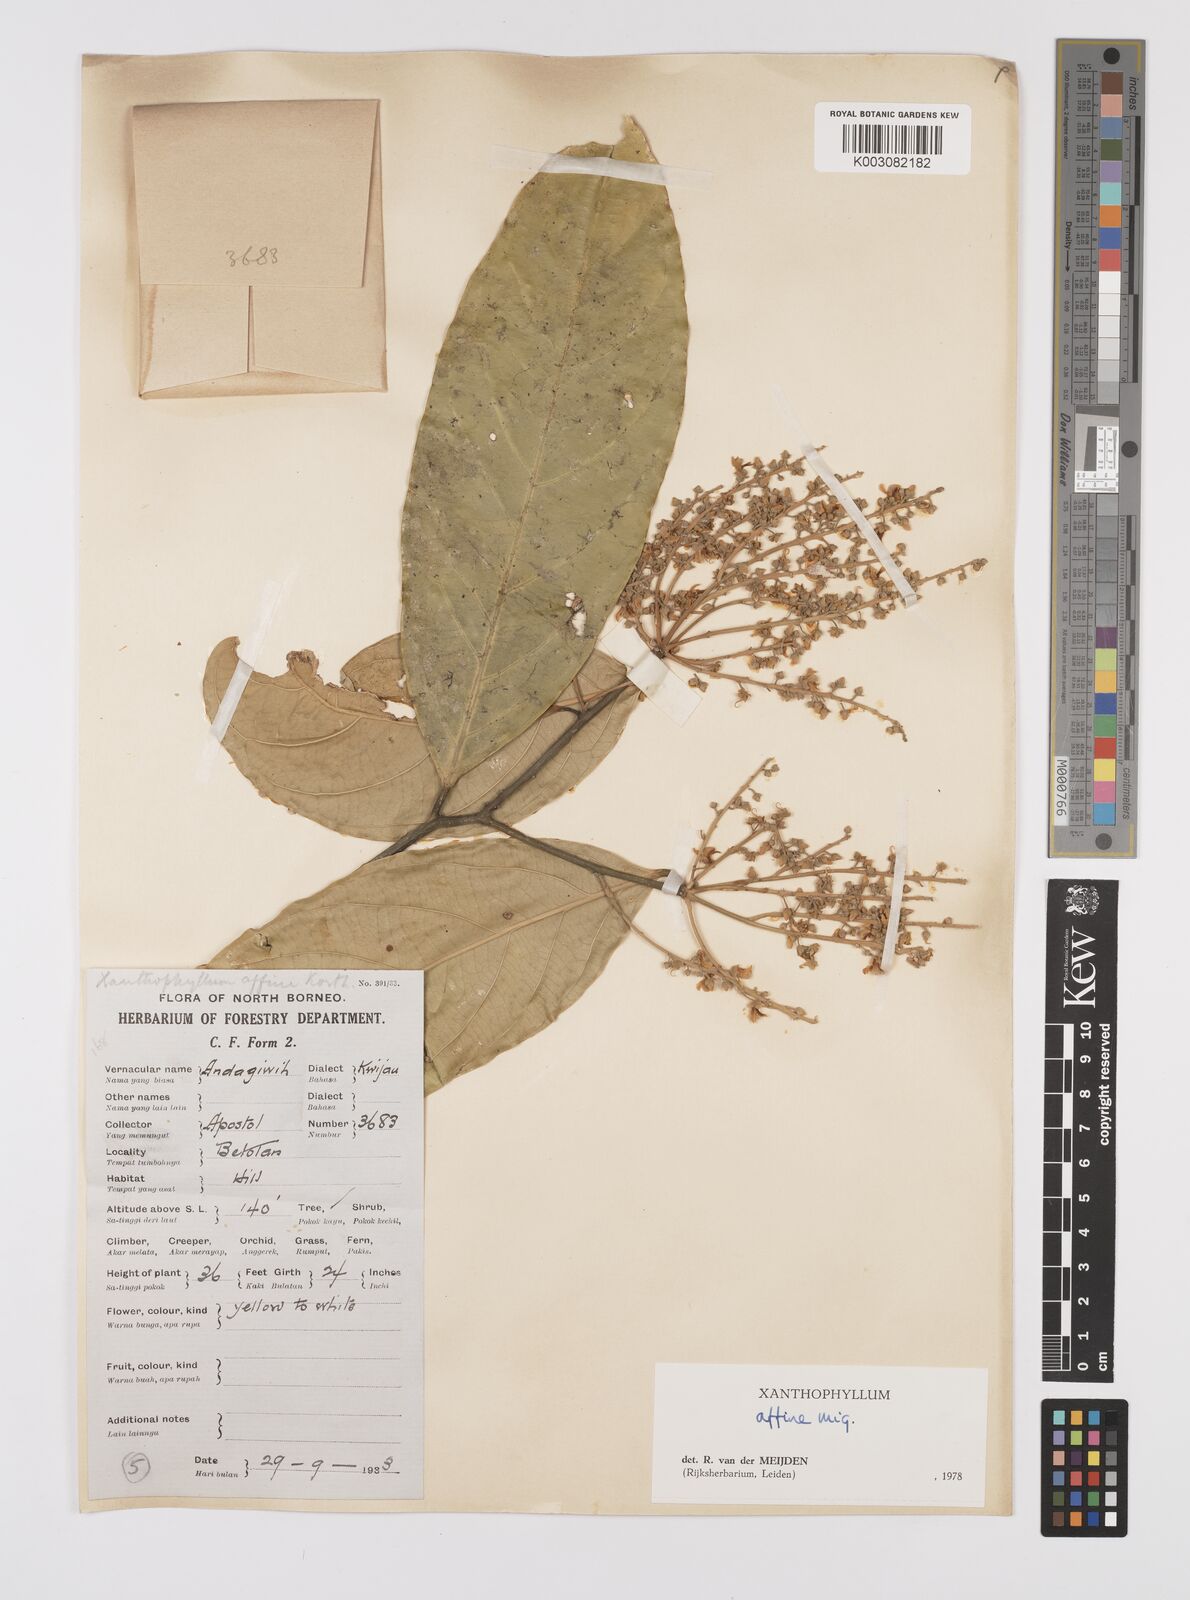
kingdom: Plantae
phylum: Tracheophyta
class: Magnoliopsida
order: Fabales
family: Polygalaceae
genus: Xanthophyllum
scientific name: Xanthophyllum flavescens
